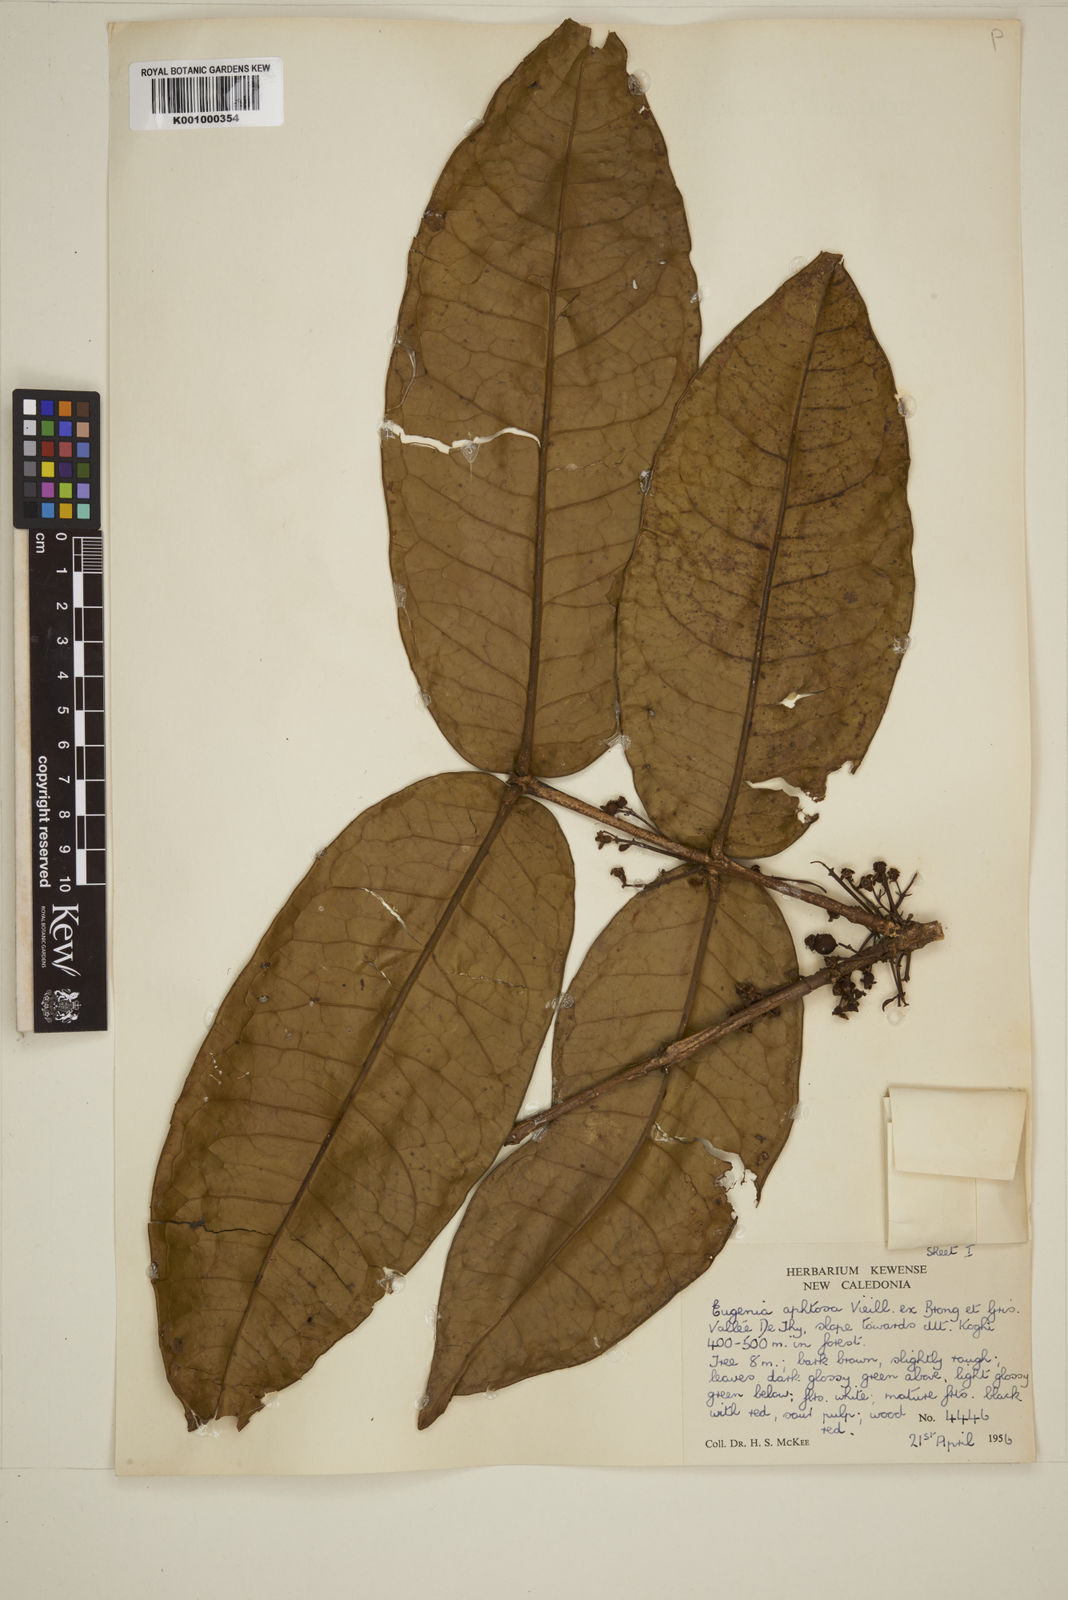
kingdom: Plantae
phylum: Tracheophyta
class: Magnoliopsida
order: Myrtales
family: Myrtaceae
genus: Gossia
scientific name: Gossia aphthosa
